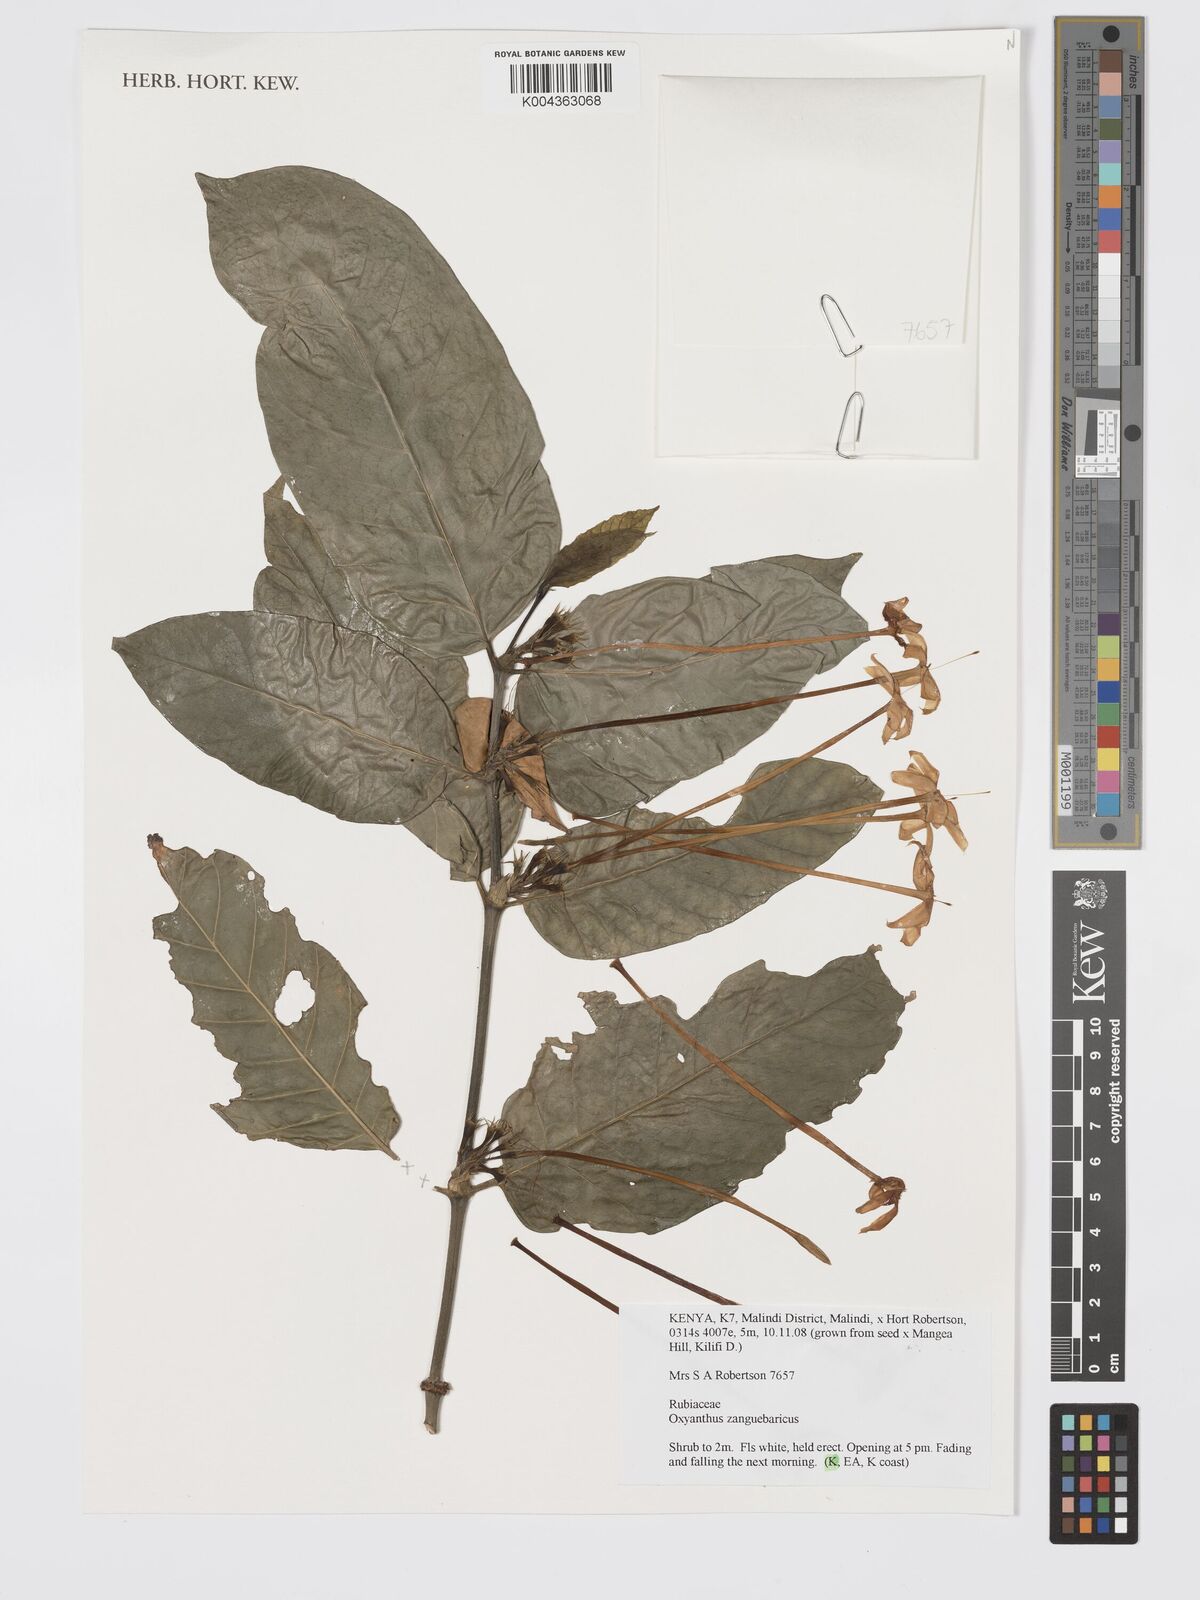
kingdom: Plantae
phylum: Tracheophyta
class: Magnoliopsida
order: Gentianales
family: Rubiaceae
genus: Oxyanthus
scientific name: Oxyanthus zanguebaricus
